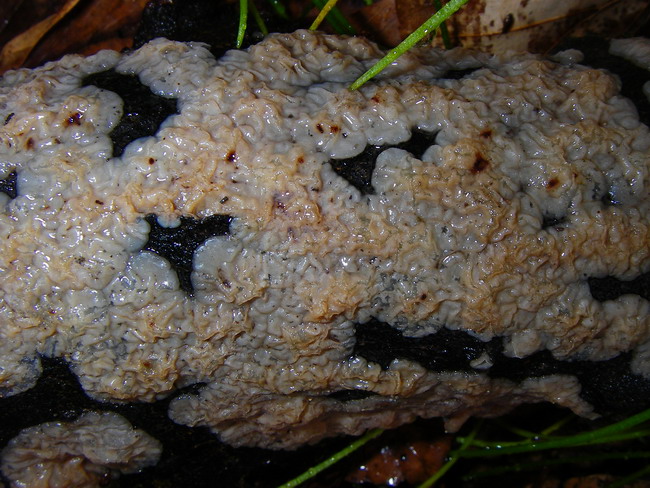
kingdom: Fungi
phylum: Basidiomycota
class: Agaricomycetes
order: Auriculariales
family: Auriculariaceae
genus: Exidia
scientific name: Exidia thuretiana
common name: hvidlig bævretop
